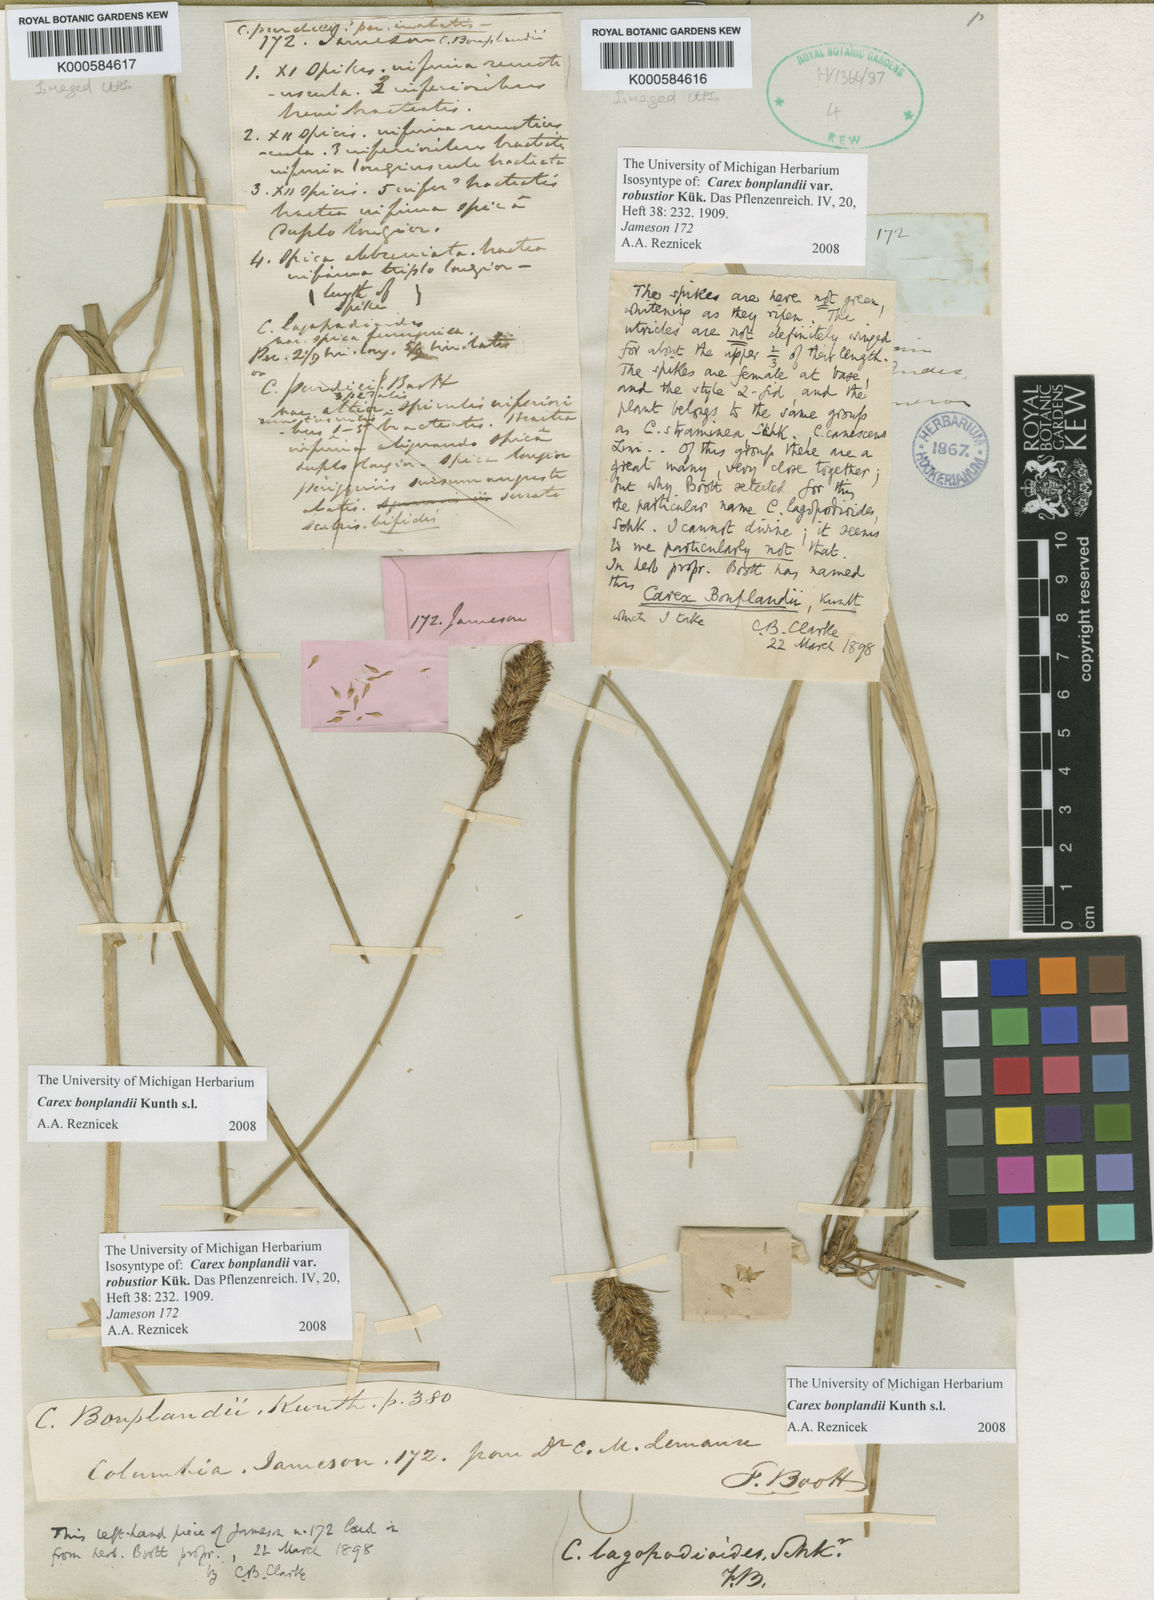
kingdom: Plantae
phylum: Tracheophyta
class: Liliopsida
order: Poales
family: Cyperaceae
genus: Carex
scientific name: Carex bonplandii
